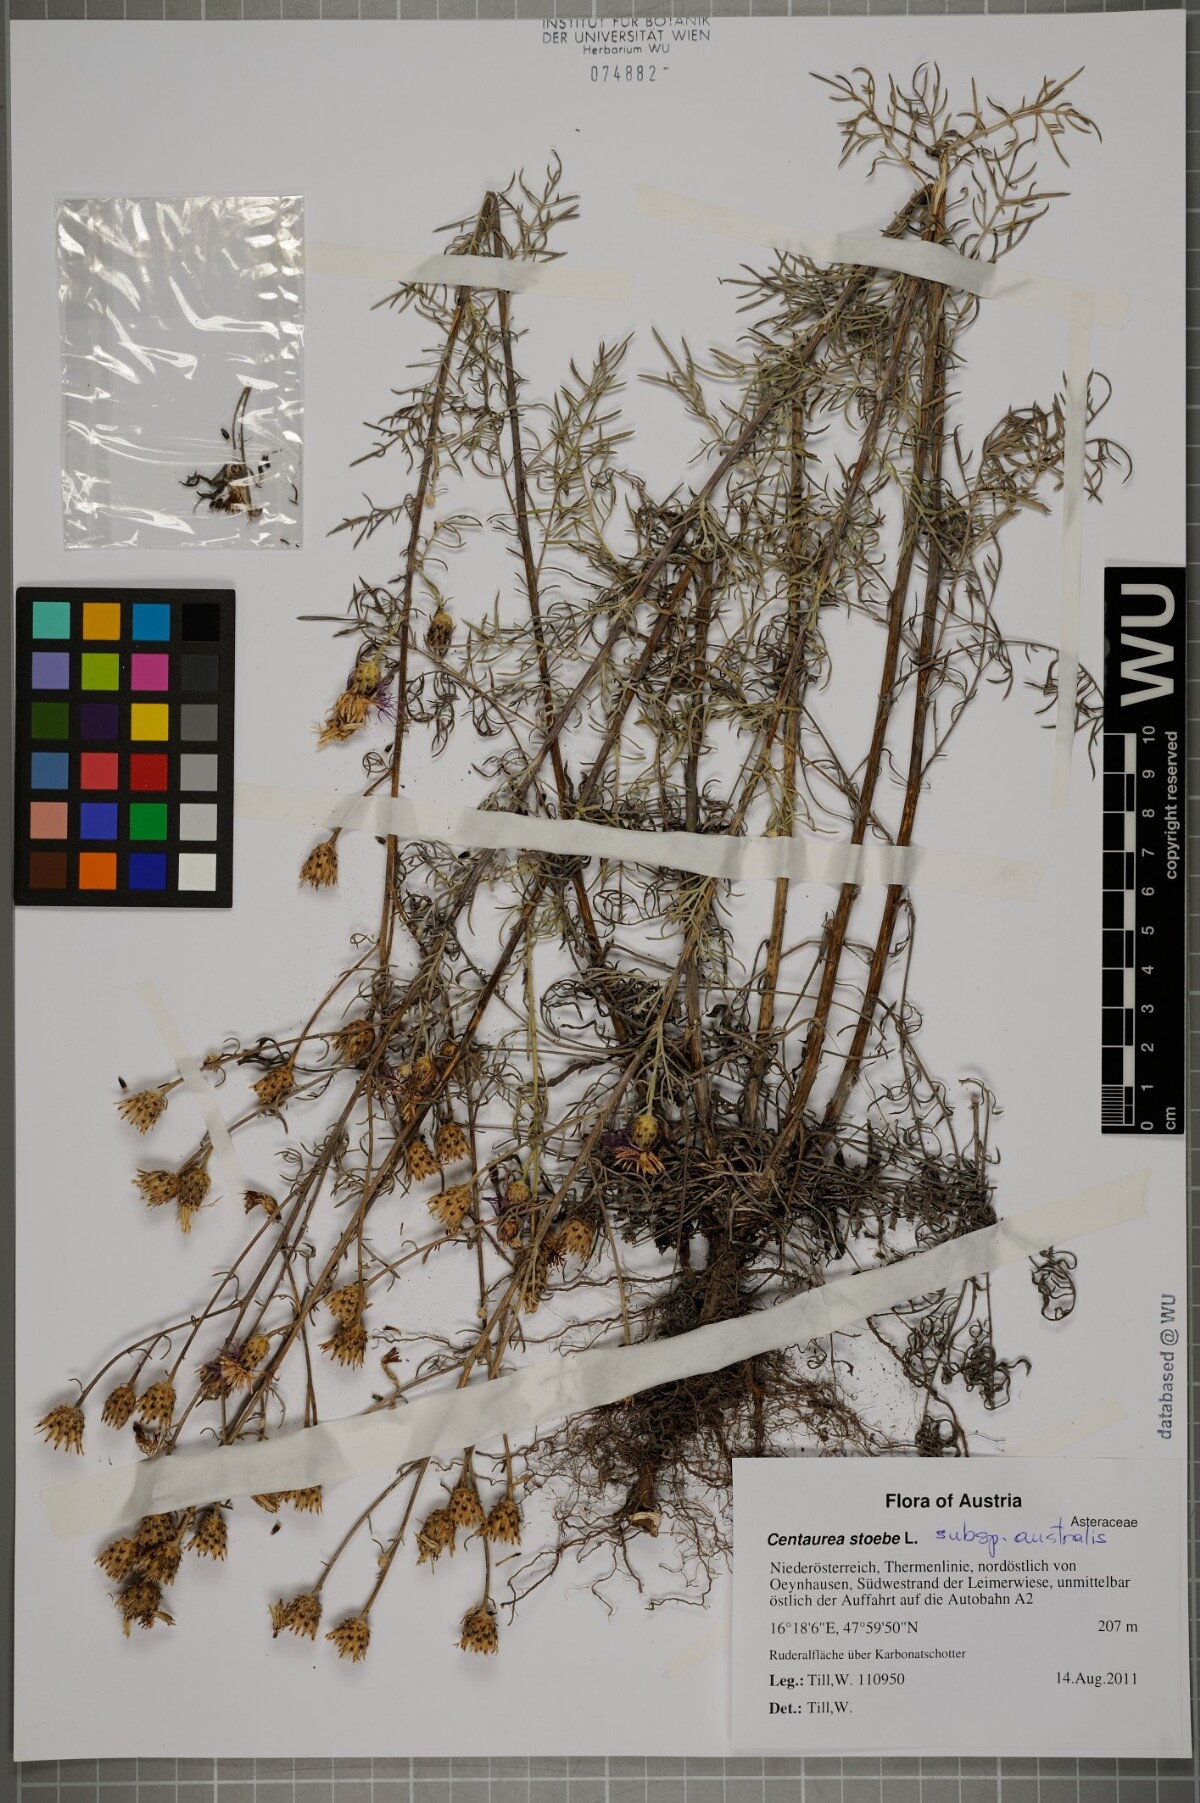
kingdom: Plantae
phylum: Tracheophyta
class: Magnoliopsida
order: Asterales
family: Asteraceae
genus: Centaurea
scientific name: Centaurea australis
